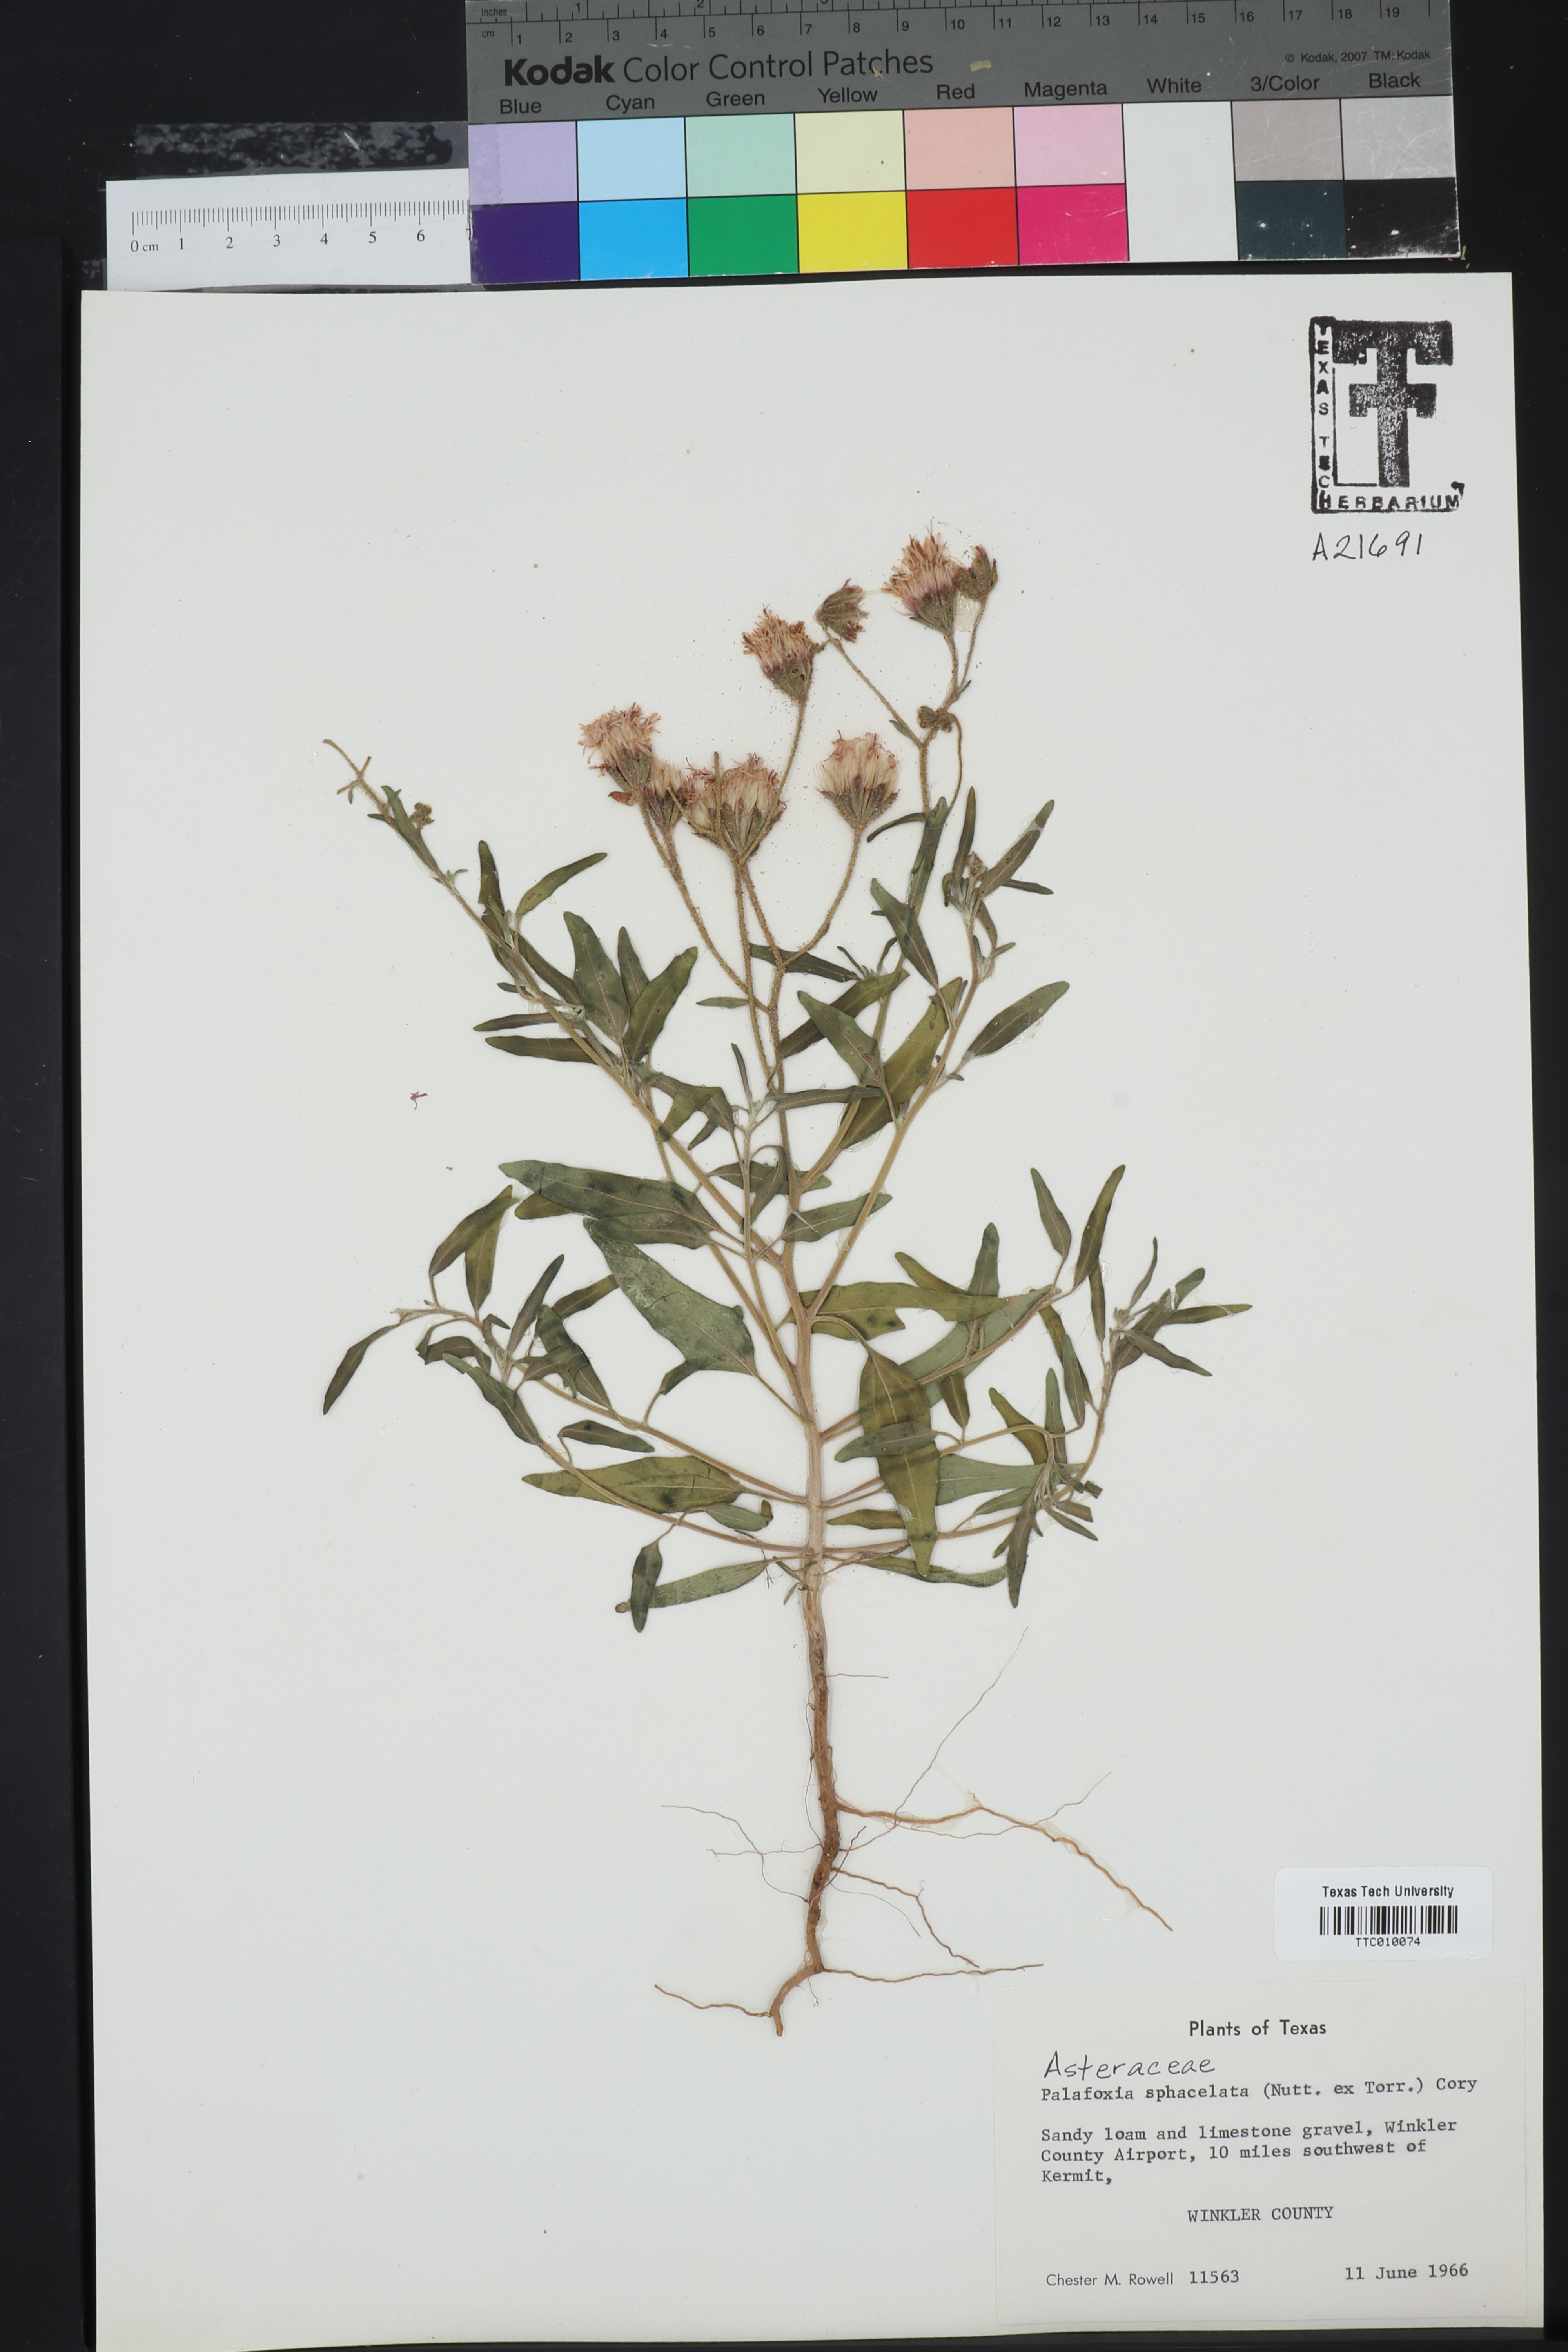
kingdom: Plantae
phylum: Tracheophyta
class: Magnoliopsida
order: Asterales
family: Asteraceae
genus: Palafoxia
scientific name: Palafoxia sphacelata
